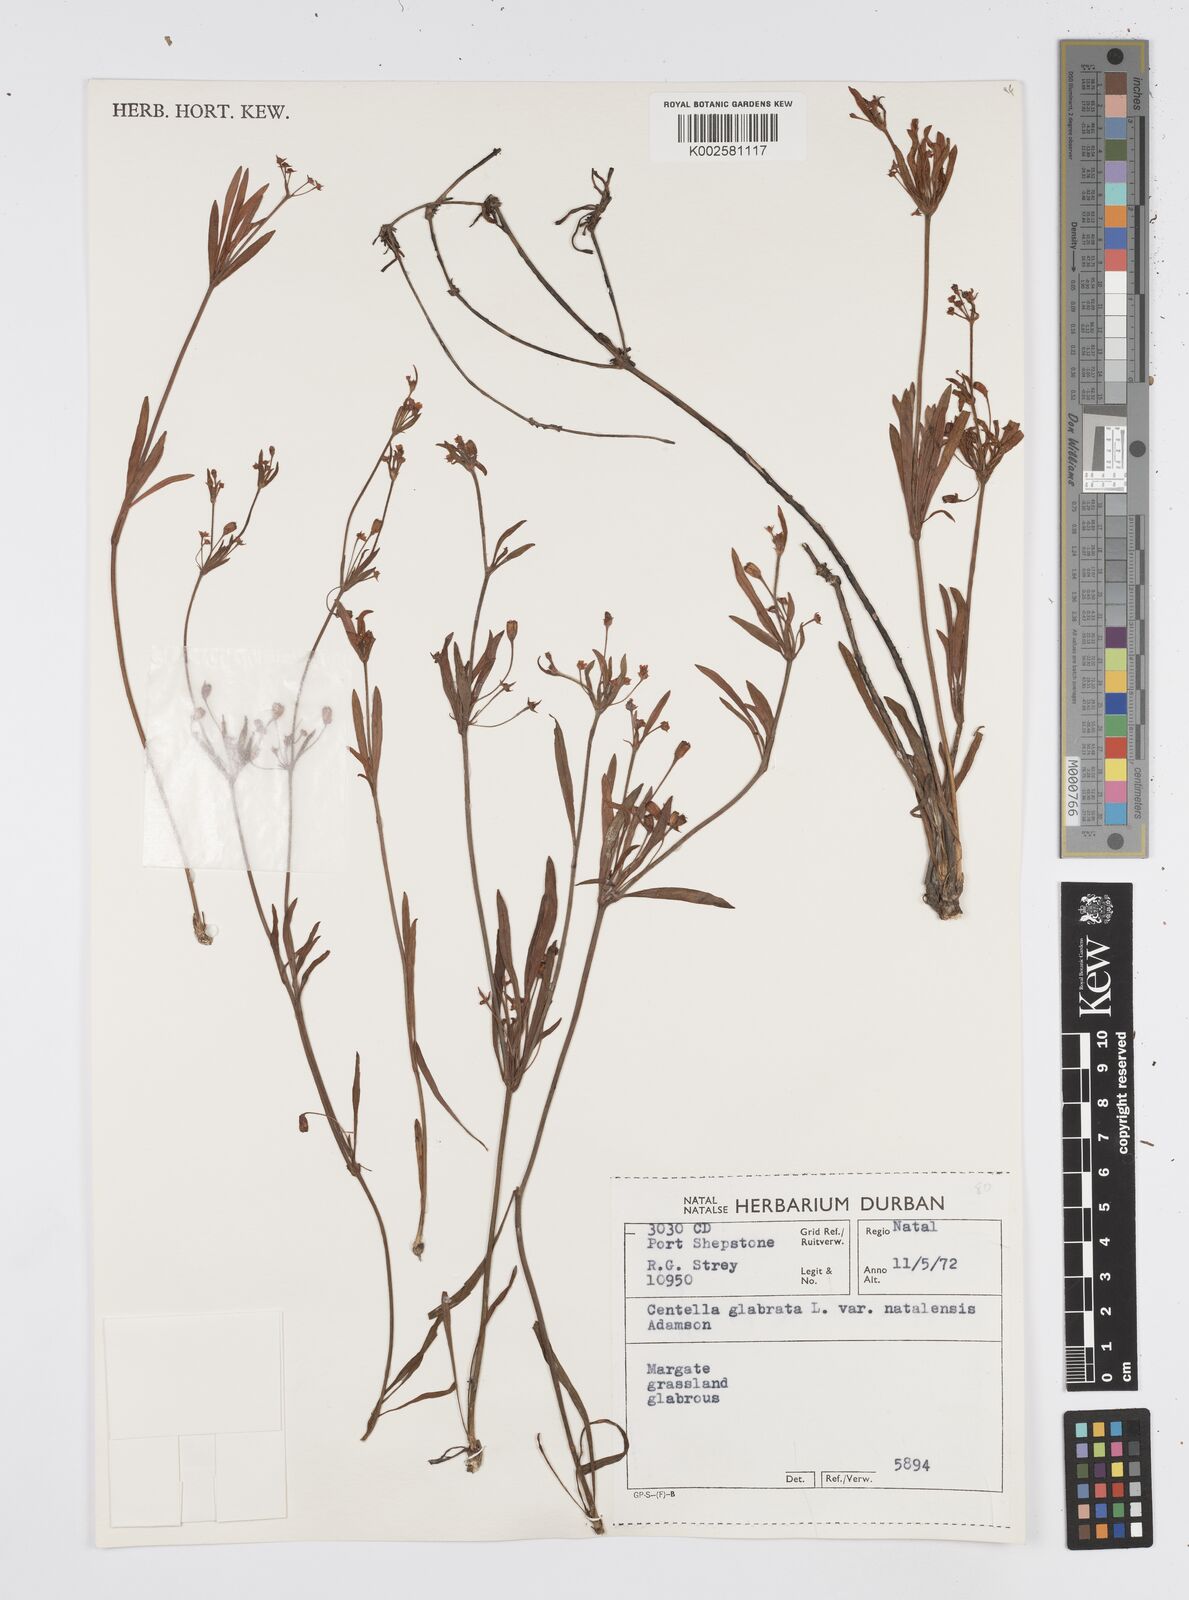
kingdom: Plantae
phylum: Tracheophyta
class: Magnoliopsida
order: Apiales
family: Apiaceae
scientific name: Apiaceae
